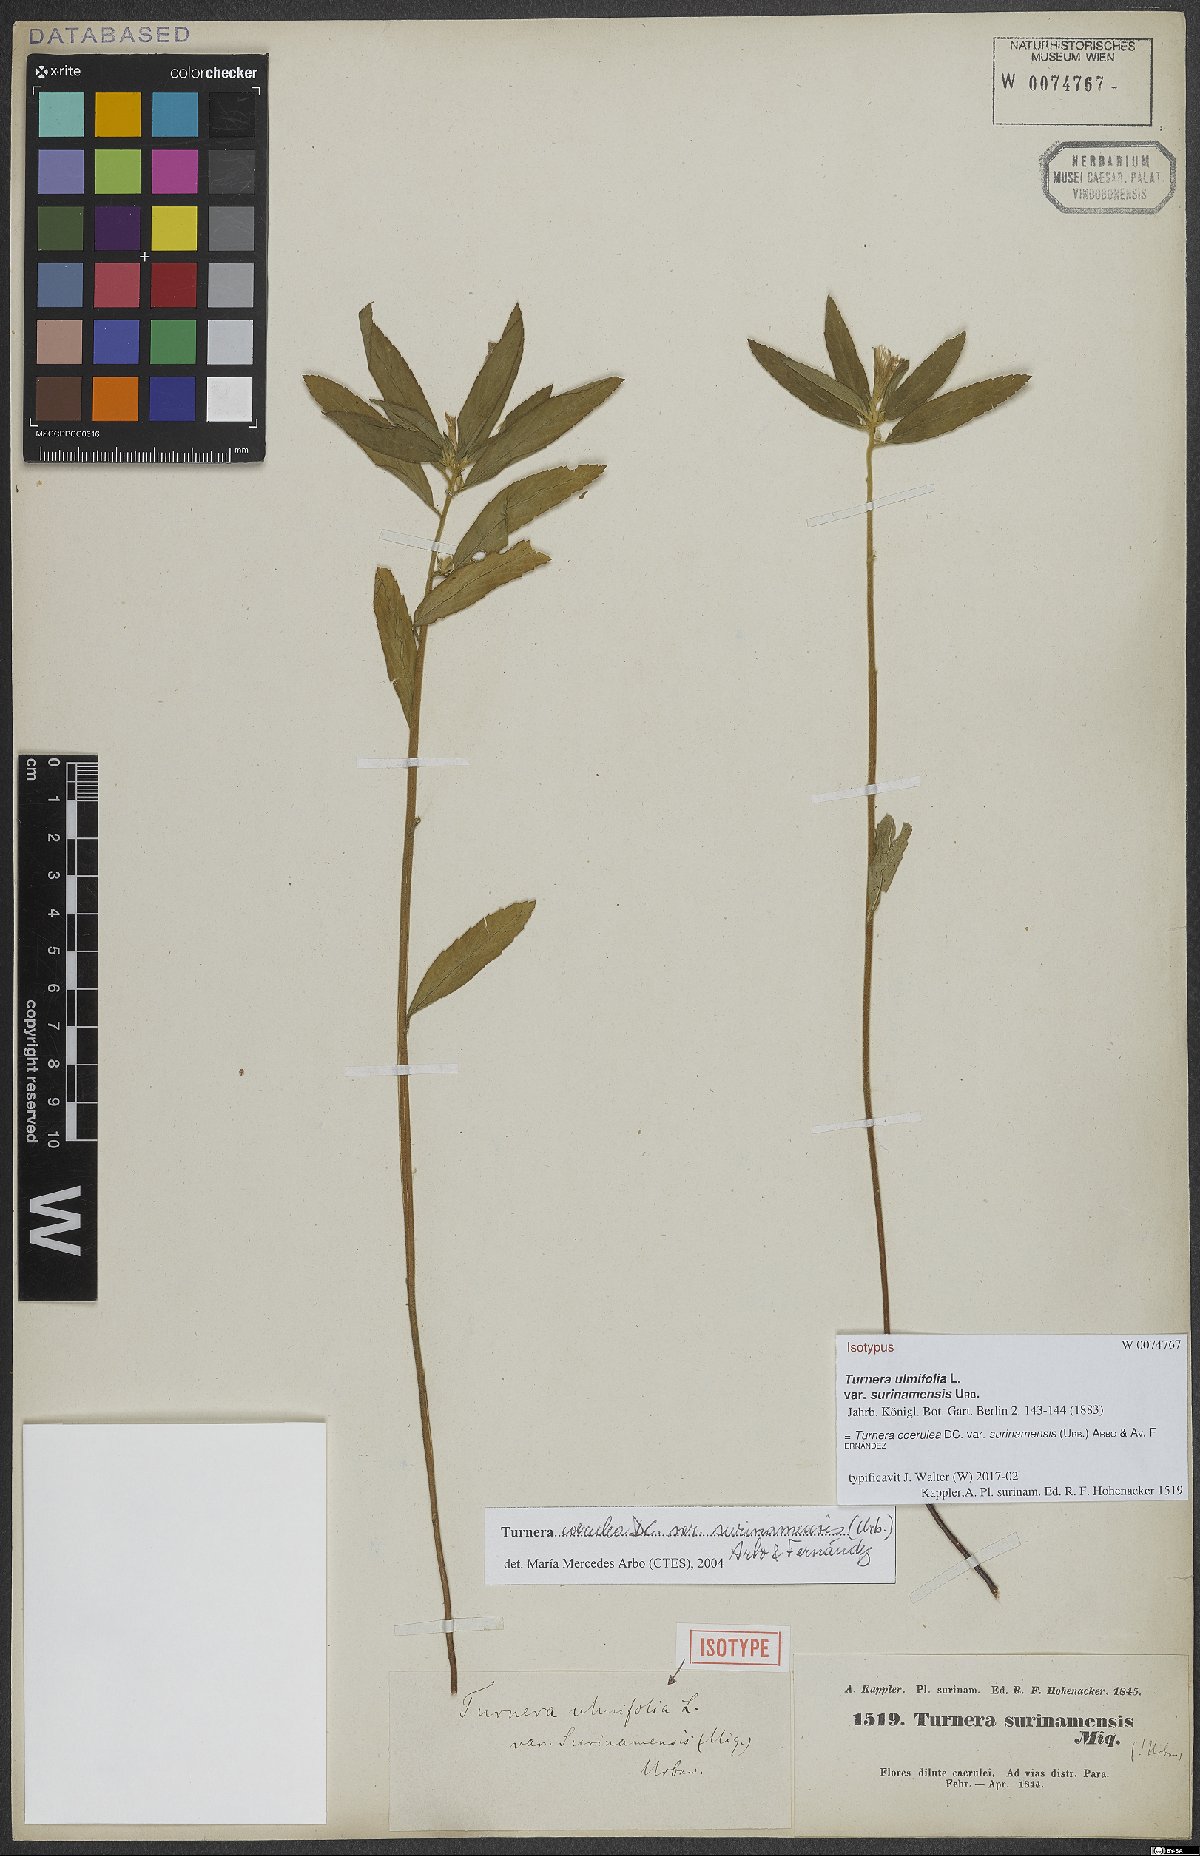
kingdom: Plantae
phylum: Tracheophyta
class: Magnoliopsida
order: Malpighiales
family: Turneraceae
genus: Turnera
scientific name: Turnera coerulea
